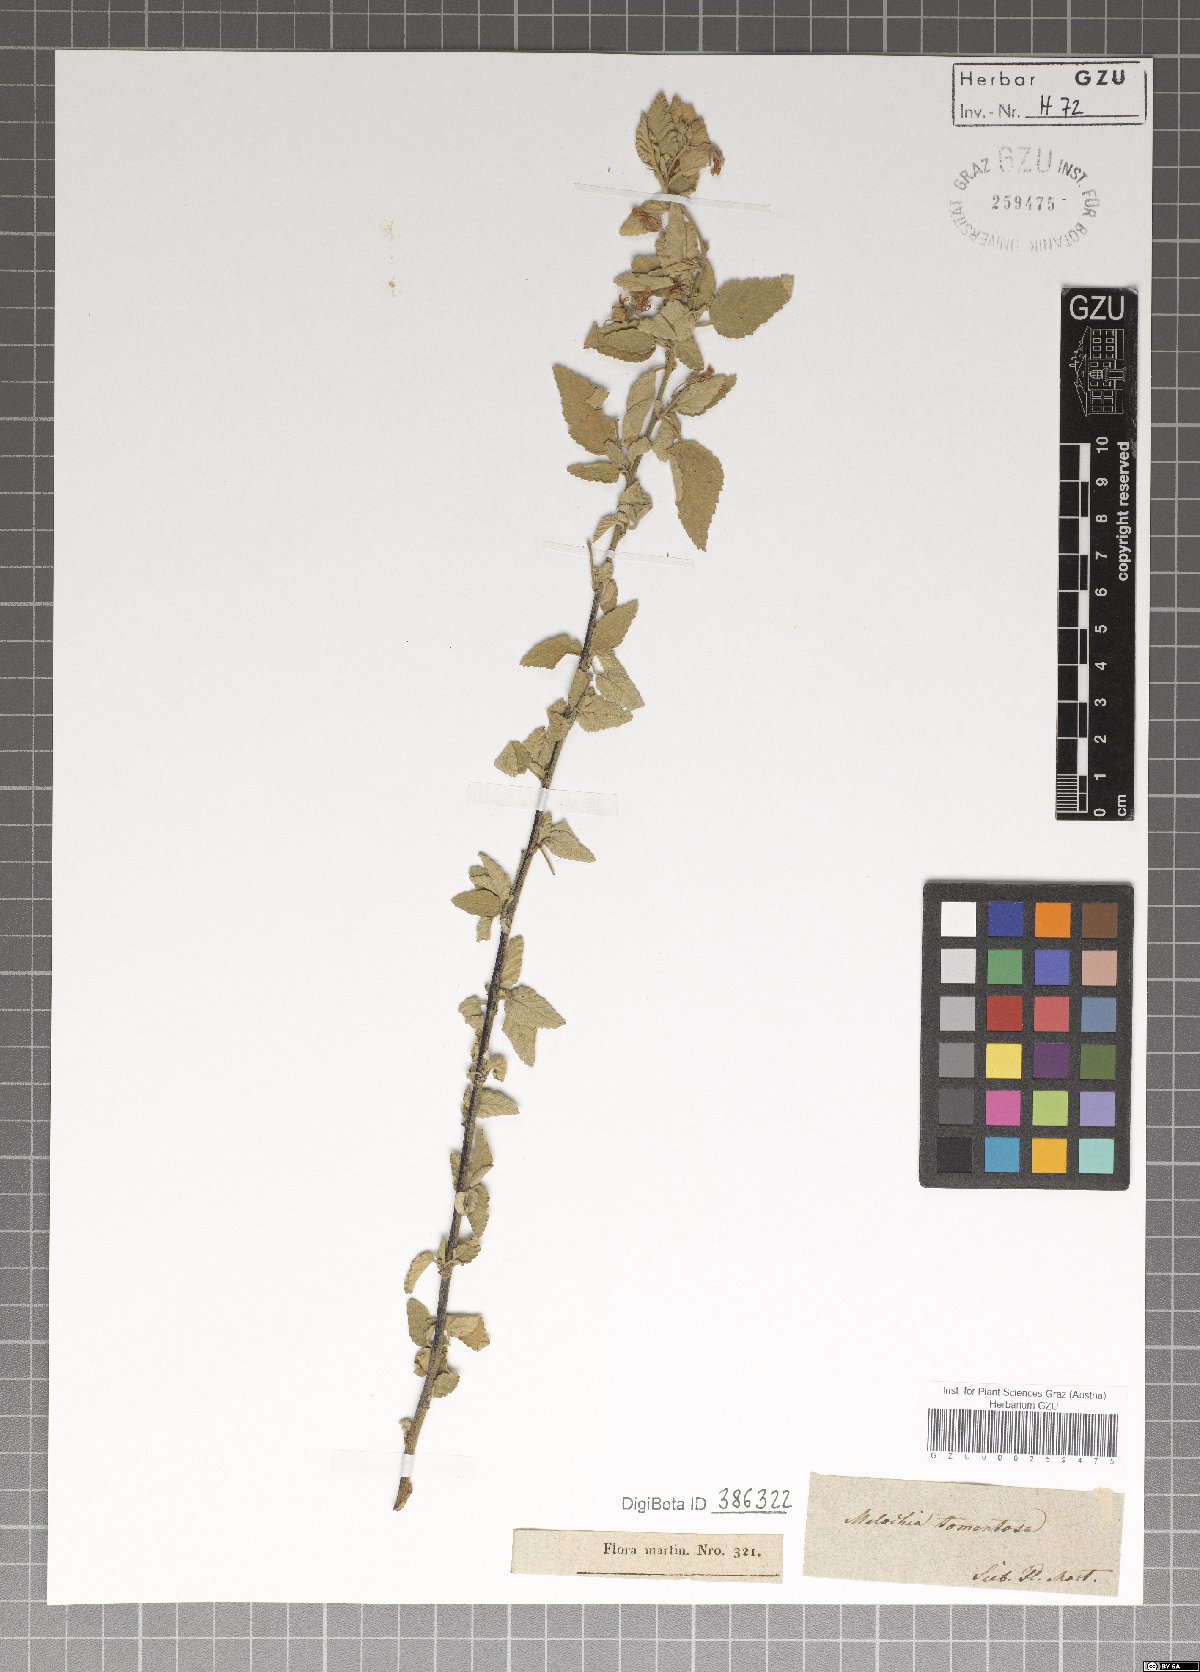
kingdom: Plantae
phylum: Tracheophyta
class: Magnoliopsida
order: Malvales
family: Malvaceae
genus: Melochia
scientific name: Melochia tomentosa
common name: Black torch
